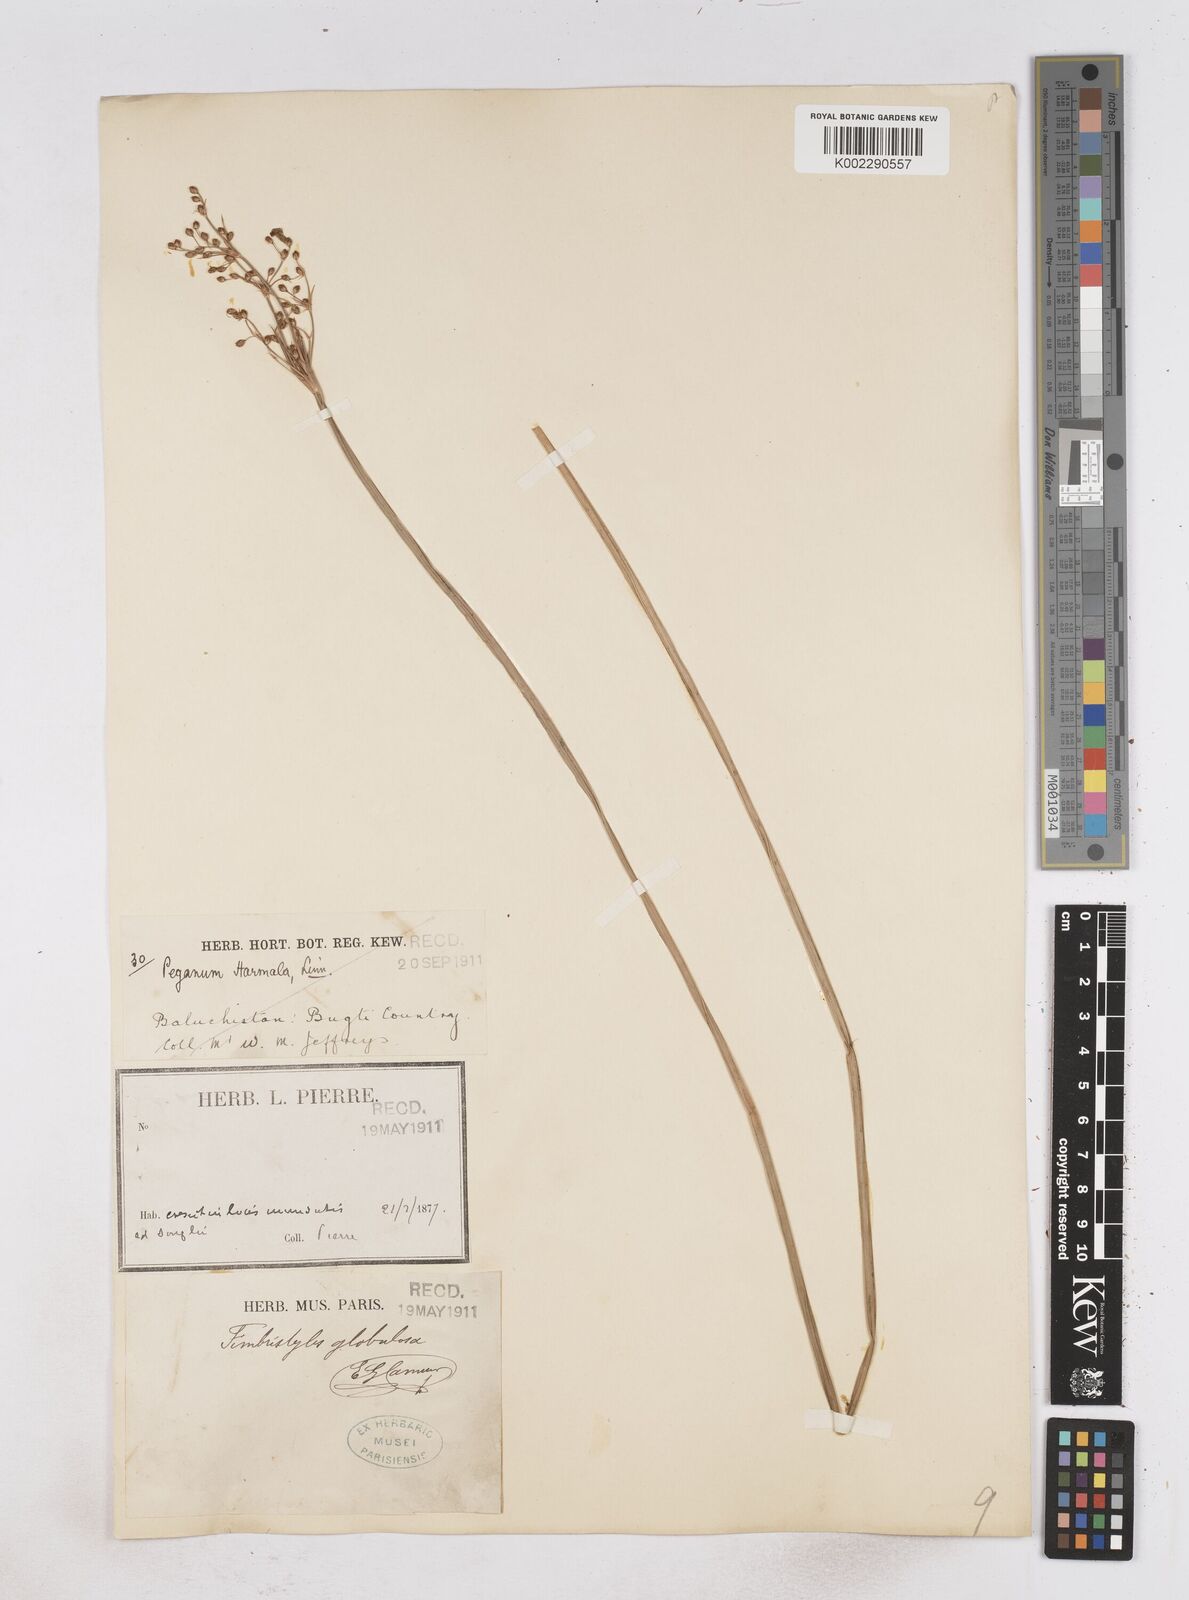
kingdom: Plantae
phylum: Tracheophyta
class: Liliopsida
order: Poales
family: Cyperaceae
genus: Fimbristylis
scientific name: Fimbristylis umbellaris
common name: Globular fimbristylis
